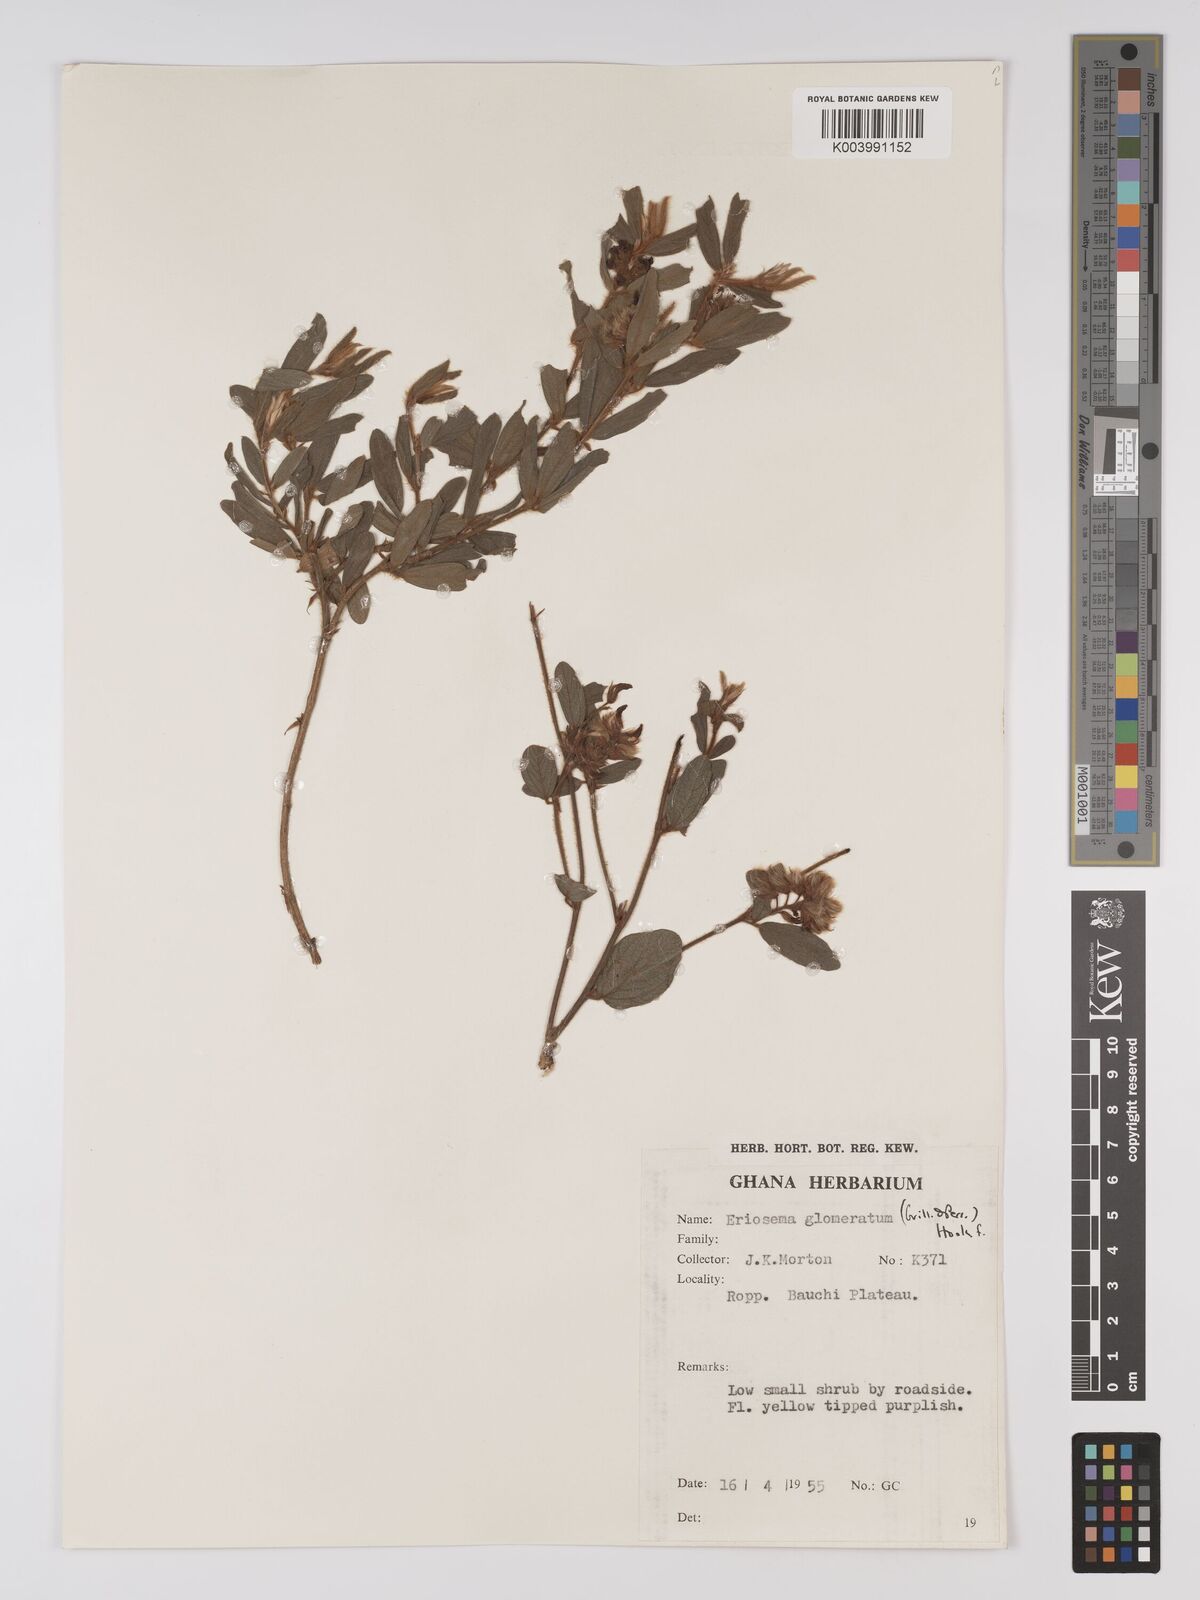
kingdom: Plantae
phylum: Tracheophyta
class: Magnoliopsida
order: Fabales
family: Fabaceae
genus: Eriosema
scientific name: Eriosema glomeratum
